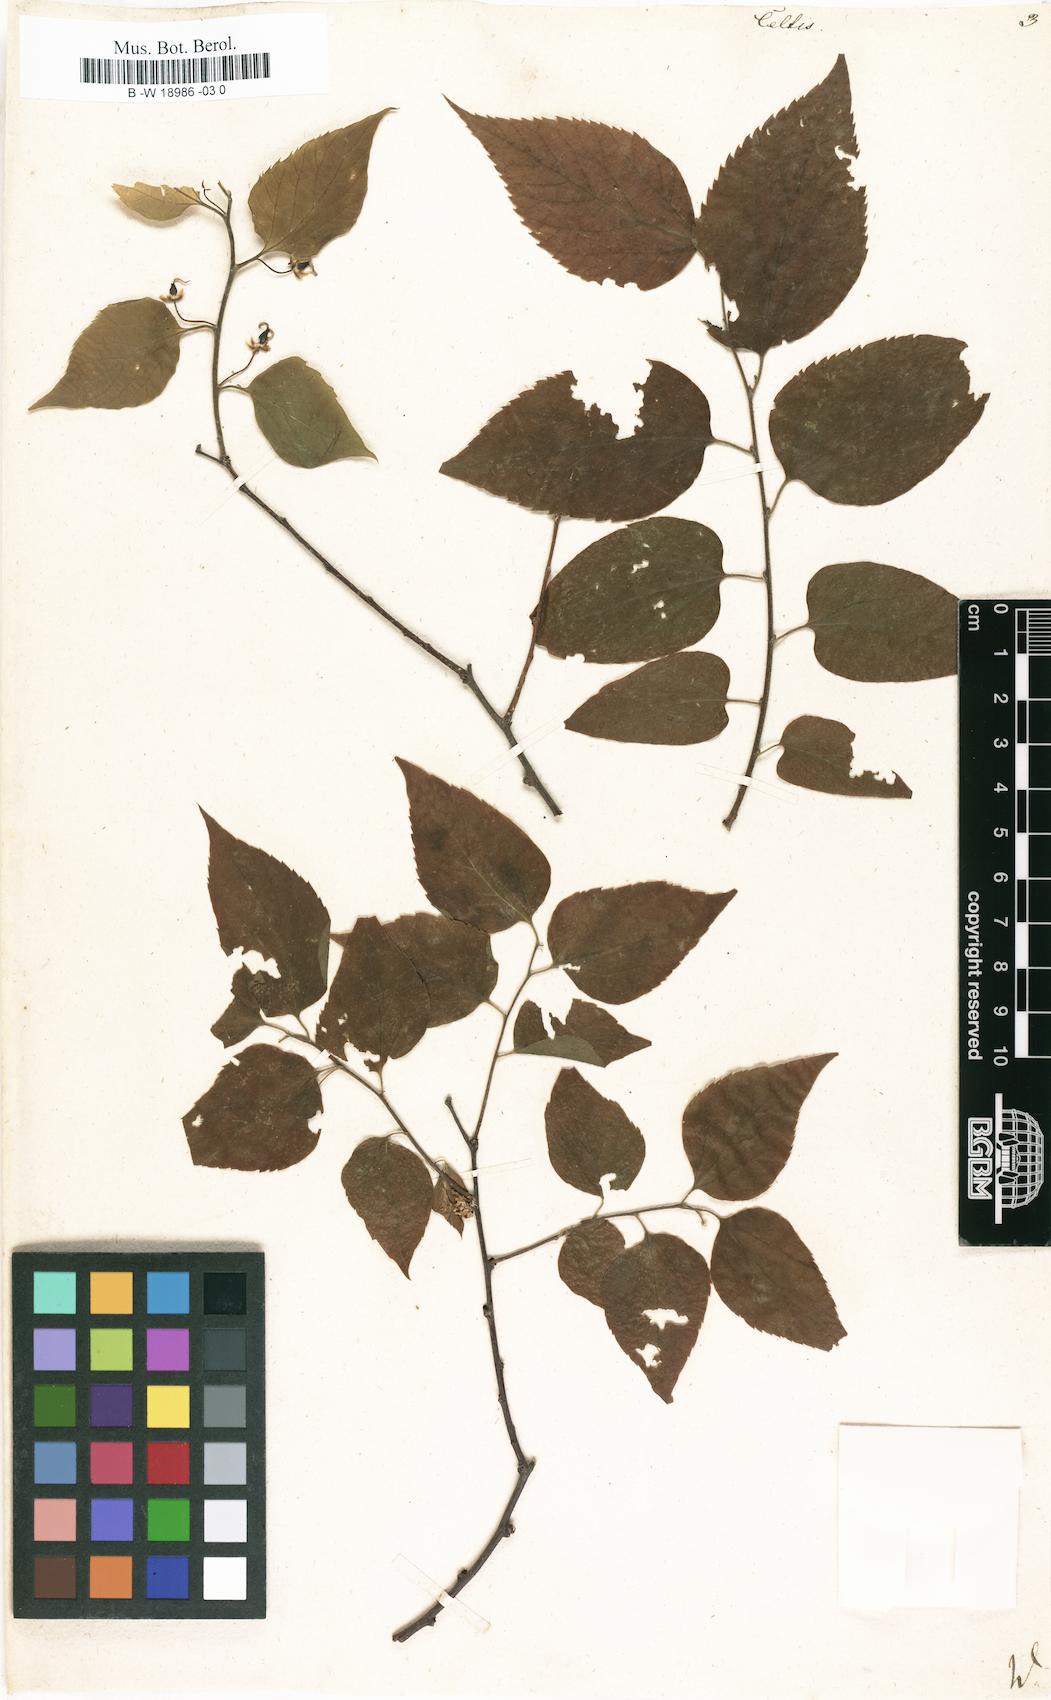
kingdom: Plantae
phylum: Tracheophyta
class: Magnoliopsida
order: Rosales
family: Cannabaceae
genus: Celtis
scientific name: Celtis
